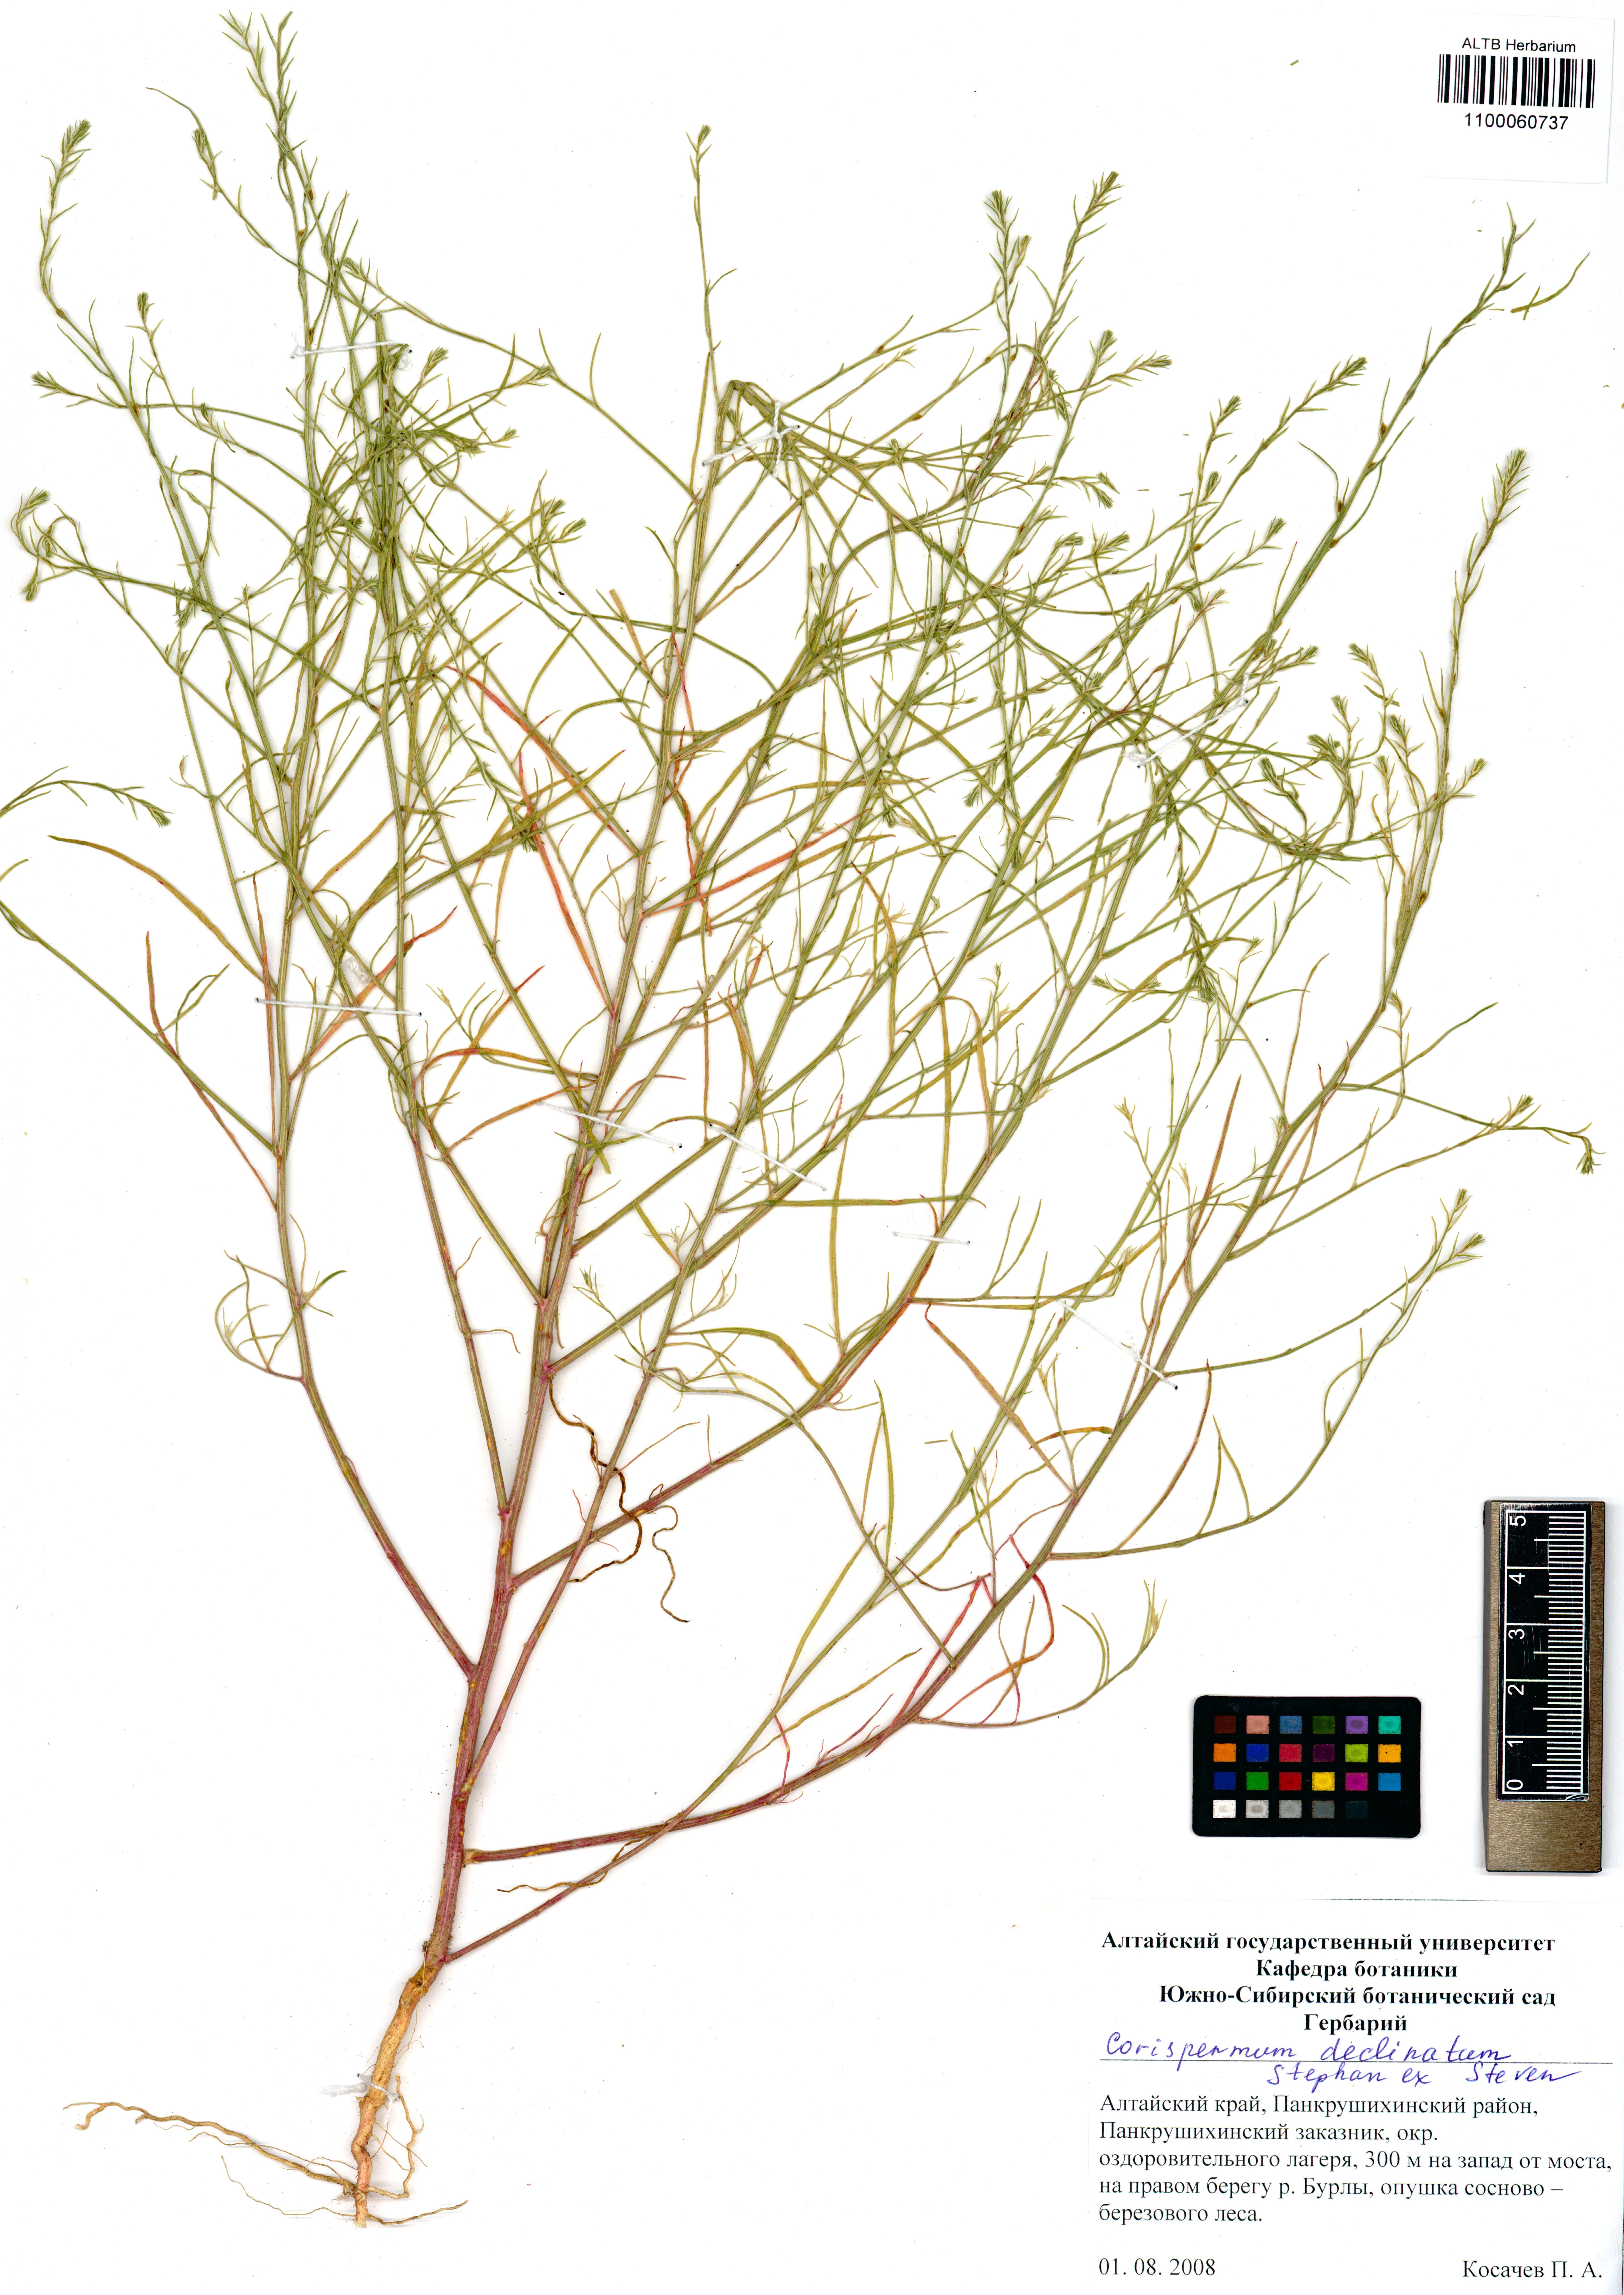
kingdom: Plantae
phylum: Tracheophyta
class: Magnoliopsida
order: Caryophyllales
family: Amaranthaceae
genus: Corispermum
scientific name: Corispermum declinatum
